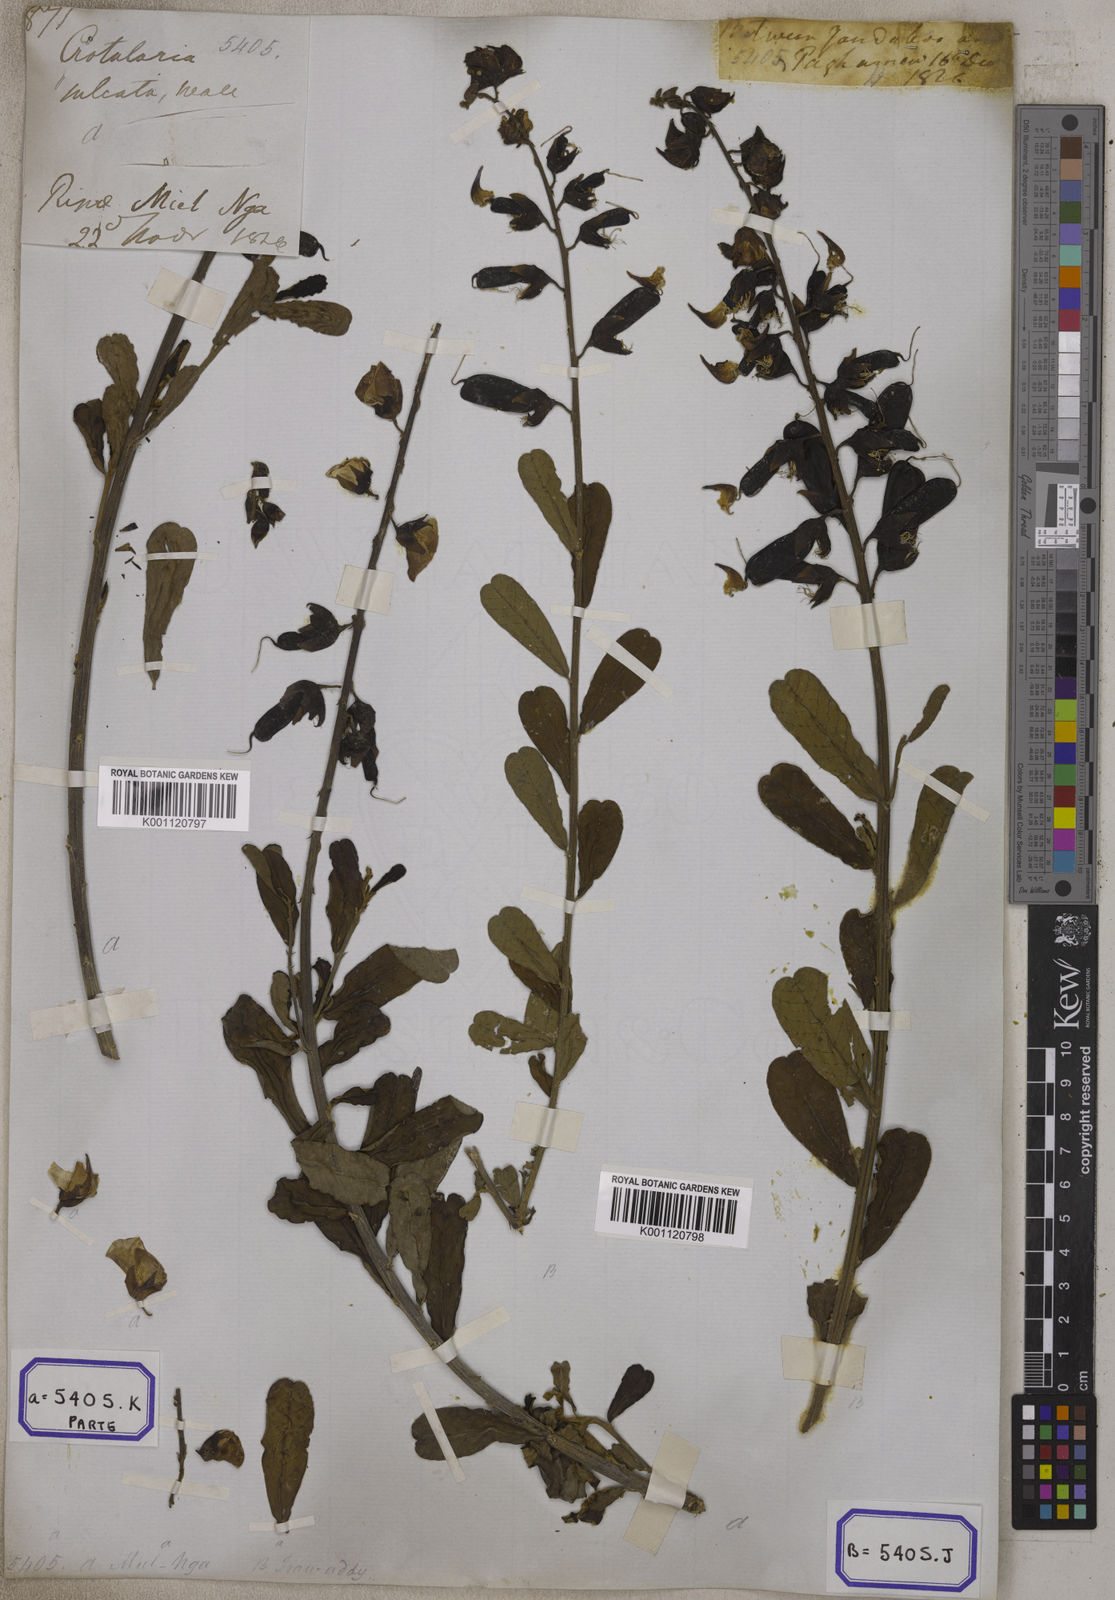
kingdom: Plantae
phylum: Tracheophyta
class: Magnoliopsida
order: Fabales
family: Fabaceae
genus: Crotalaria
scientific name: Crotalaria retusa
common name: Rattleweed
